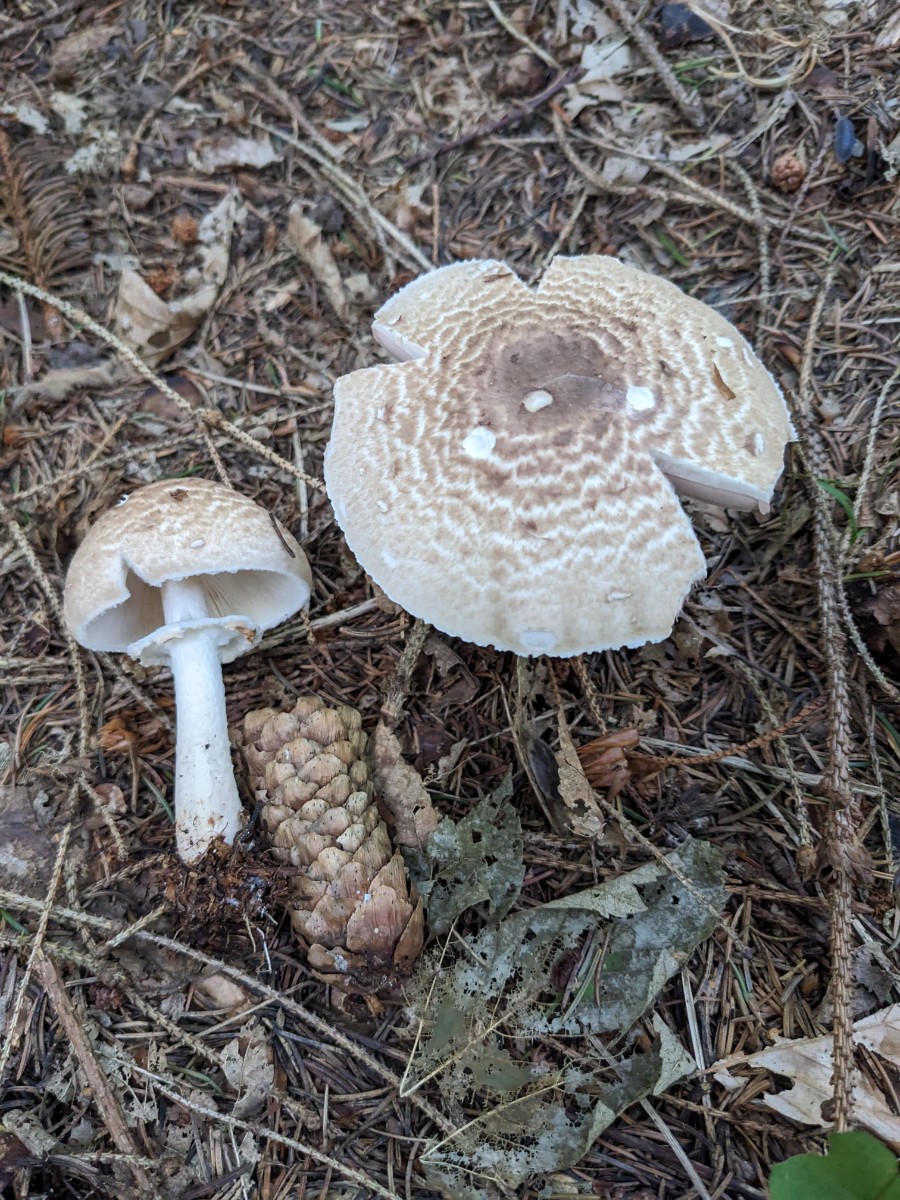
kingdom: Fungi
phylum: Basidiomycota
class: Agaricomycetes
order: Agaricales
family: Agaricaceae
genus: Agaricus
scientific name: Agaricus impudicus
